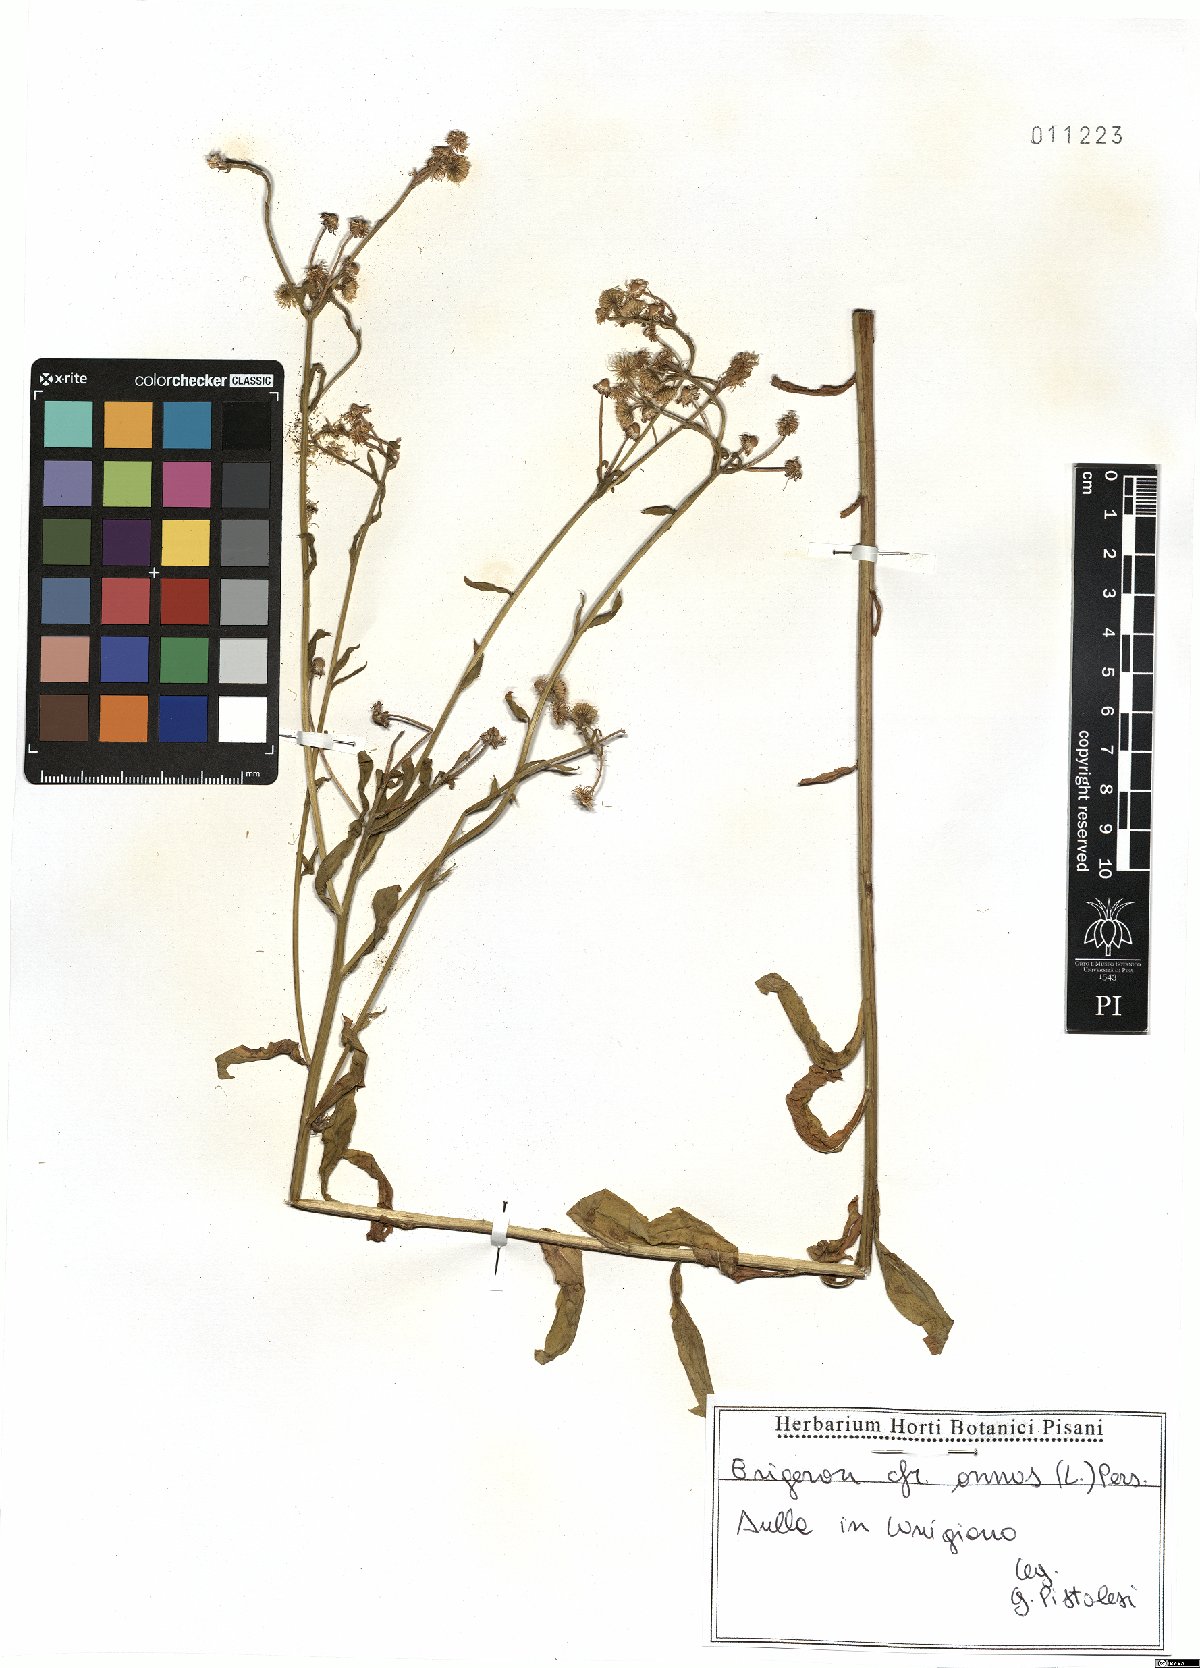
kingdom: Plantae
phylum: Tracheophyta
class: Magnoliopsida
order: Asterales
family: Asteraceae
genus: Erigeron
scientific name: Erigeron annuus
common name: Tall fleabane
